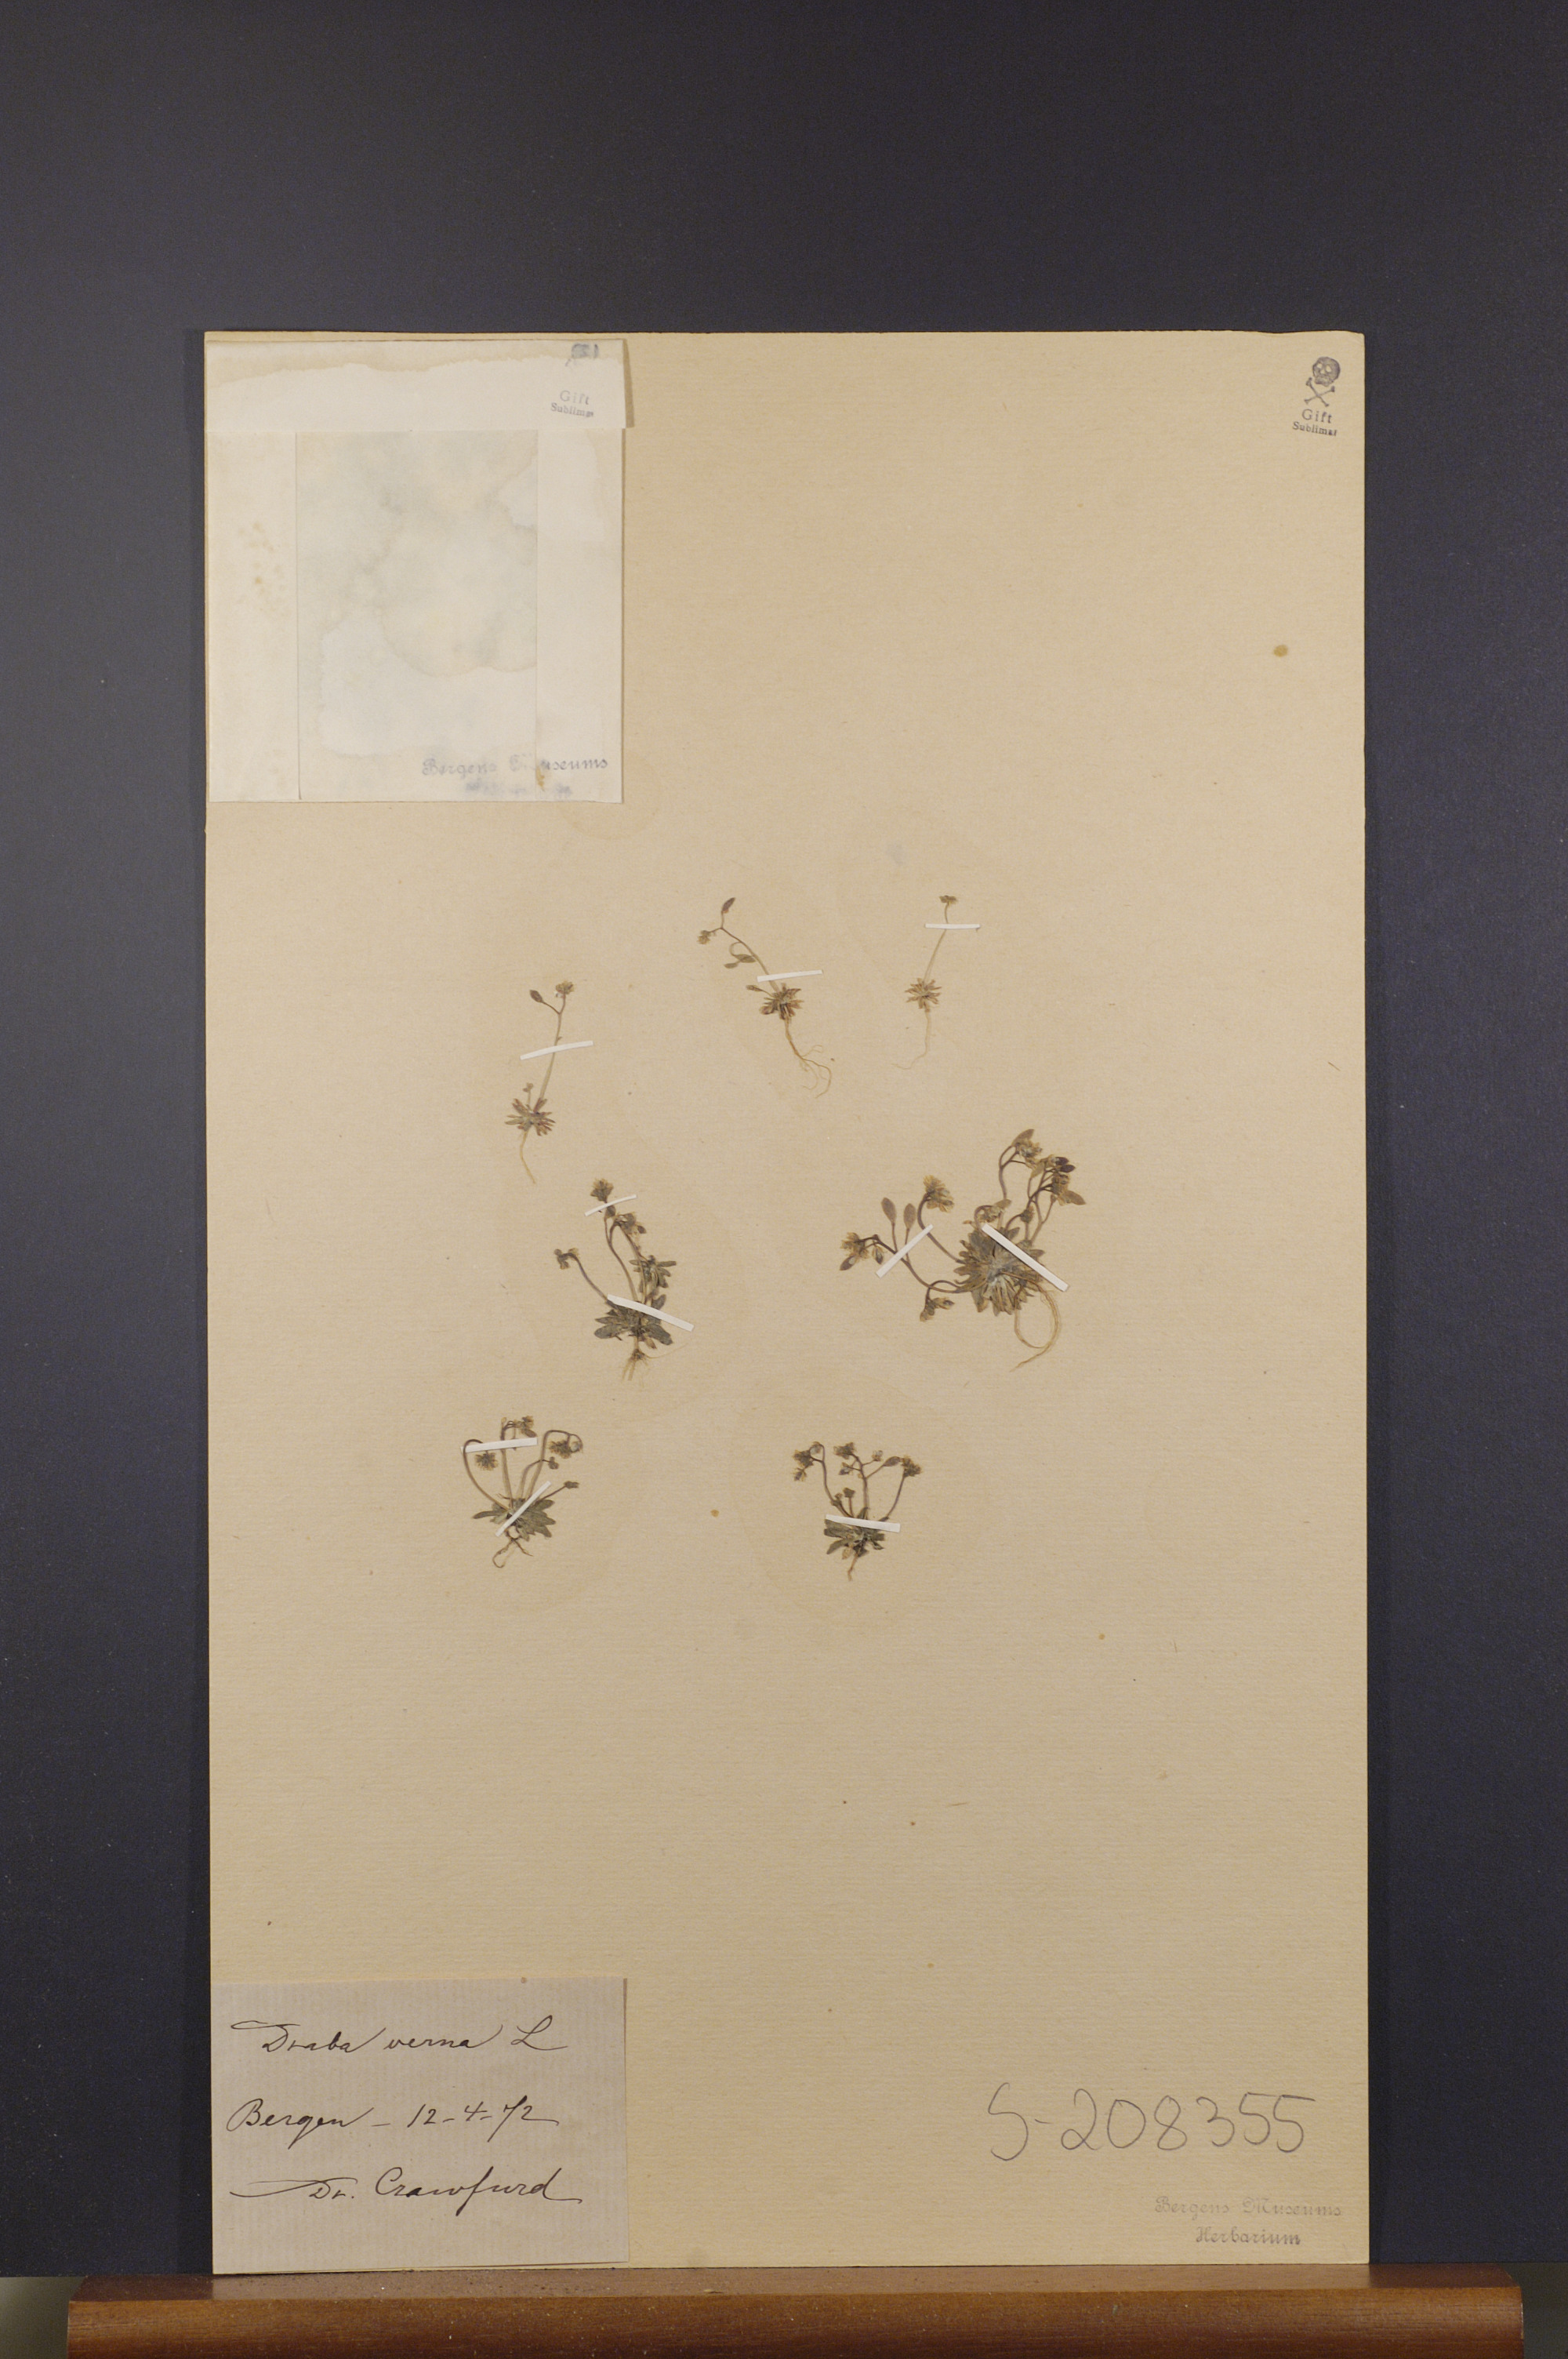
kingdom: Plantae
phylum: Tracheophyta
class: Magnoliopsida
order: Brassicales
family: Brassicaceae
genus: Draba
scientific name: Draba verna
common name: Spring draba
